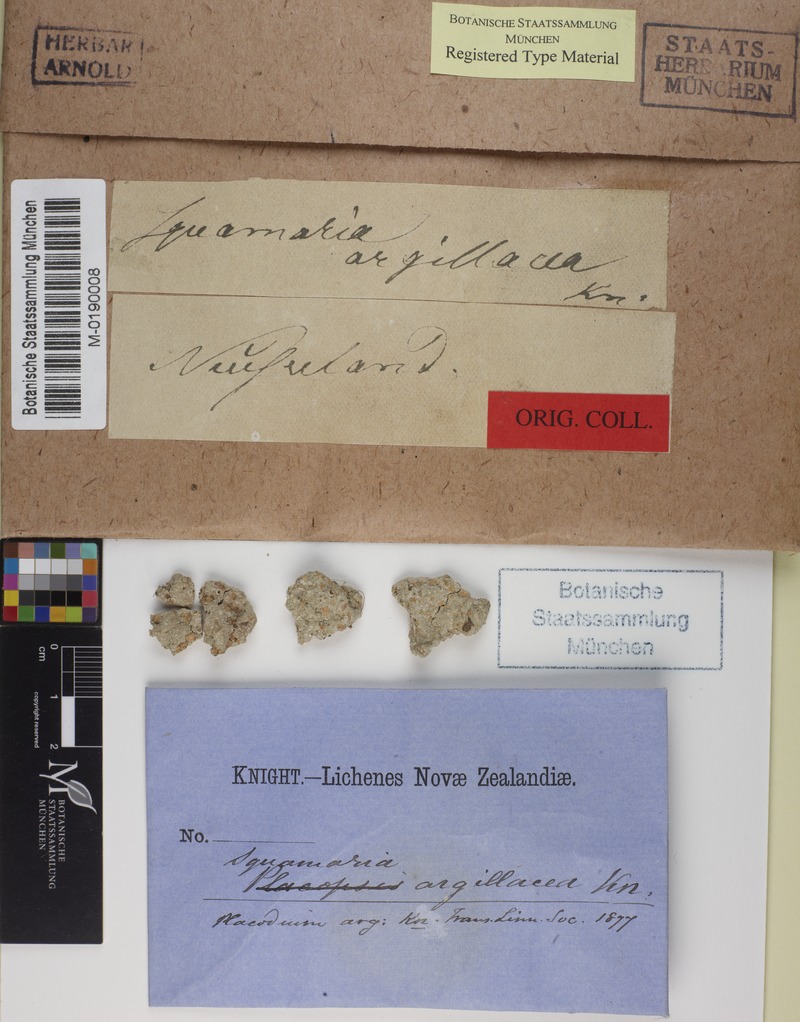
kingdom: Fungi
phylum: Ascomycota
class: Lecanoromycetes
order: Baeomycetales
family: Trapeliaceae
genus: Placopsis
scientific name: Placopsis
